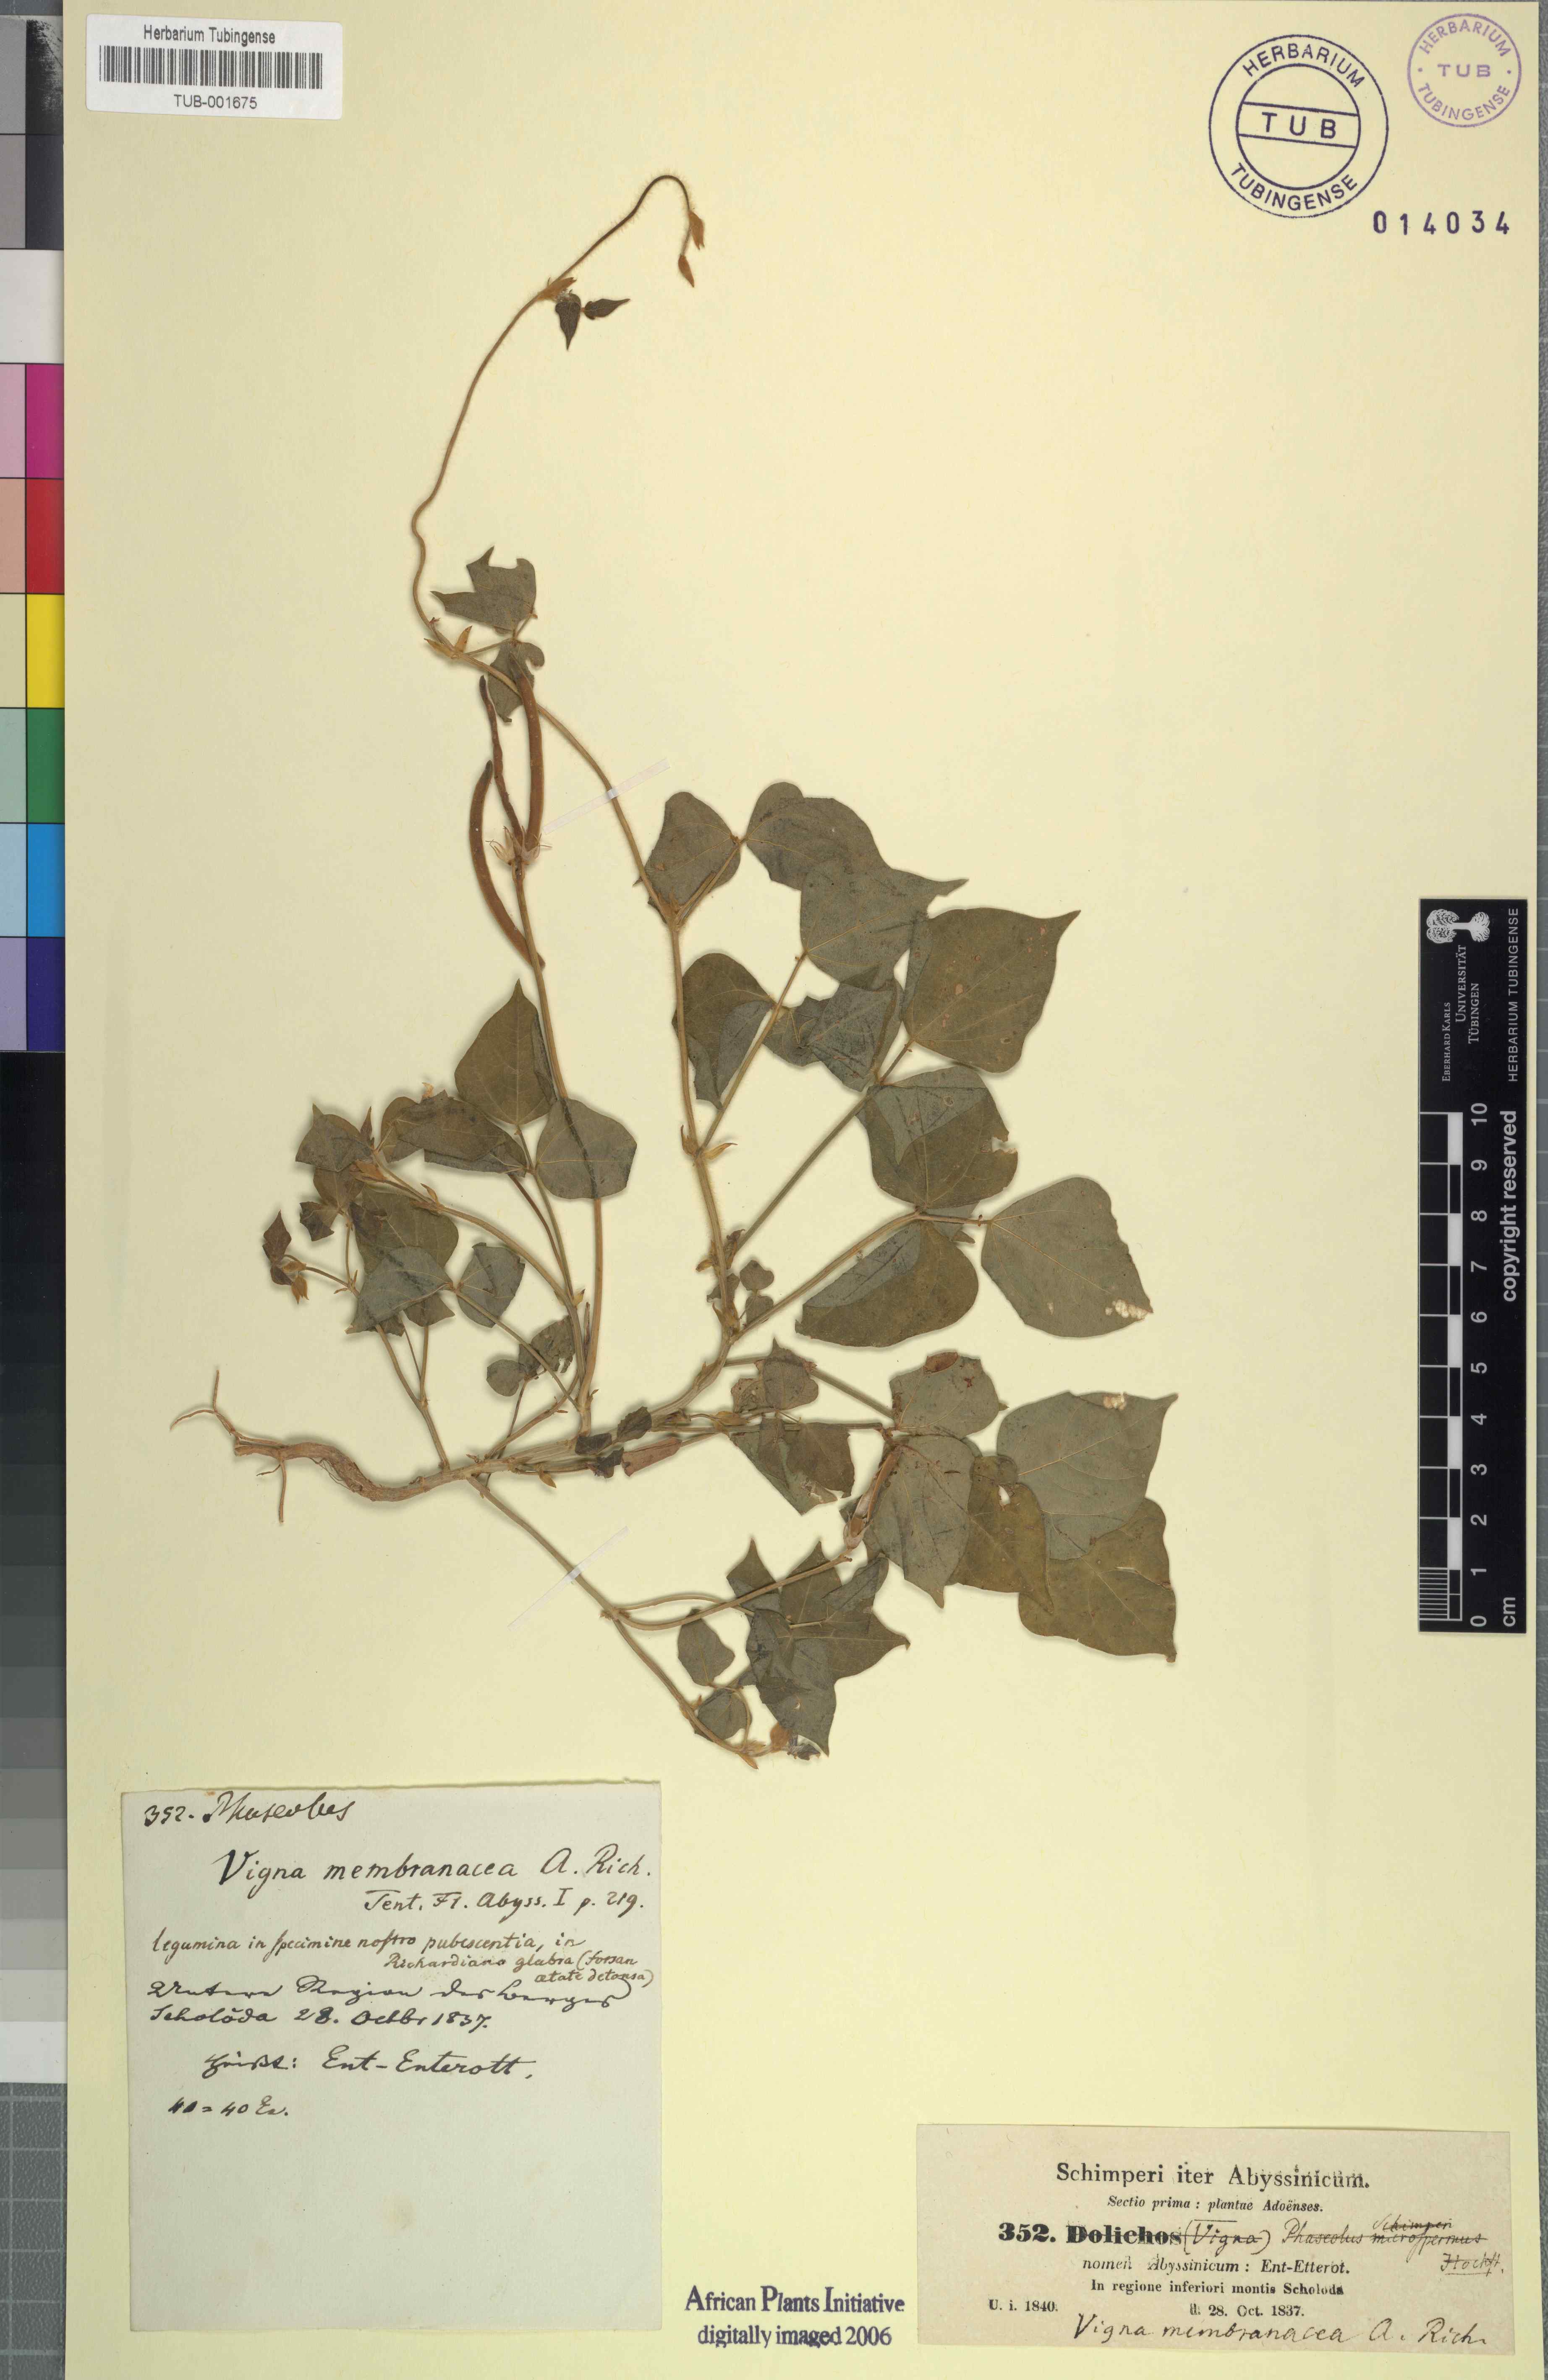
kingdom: Plantae
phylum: Tracheophyta
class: Magnoliopsida
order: Fabales
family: Fabaceae
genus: Vigna
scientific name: Vigna membranacea
